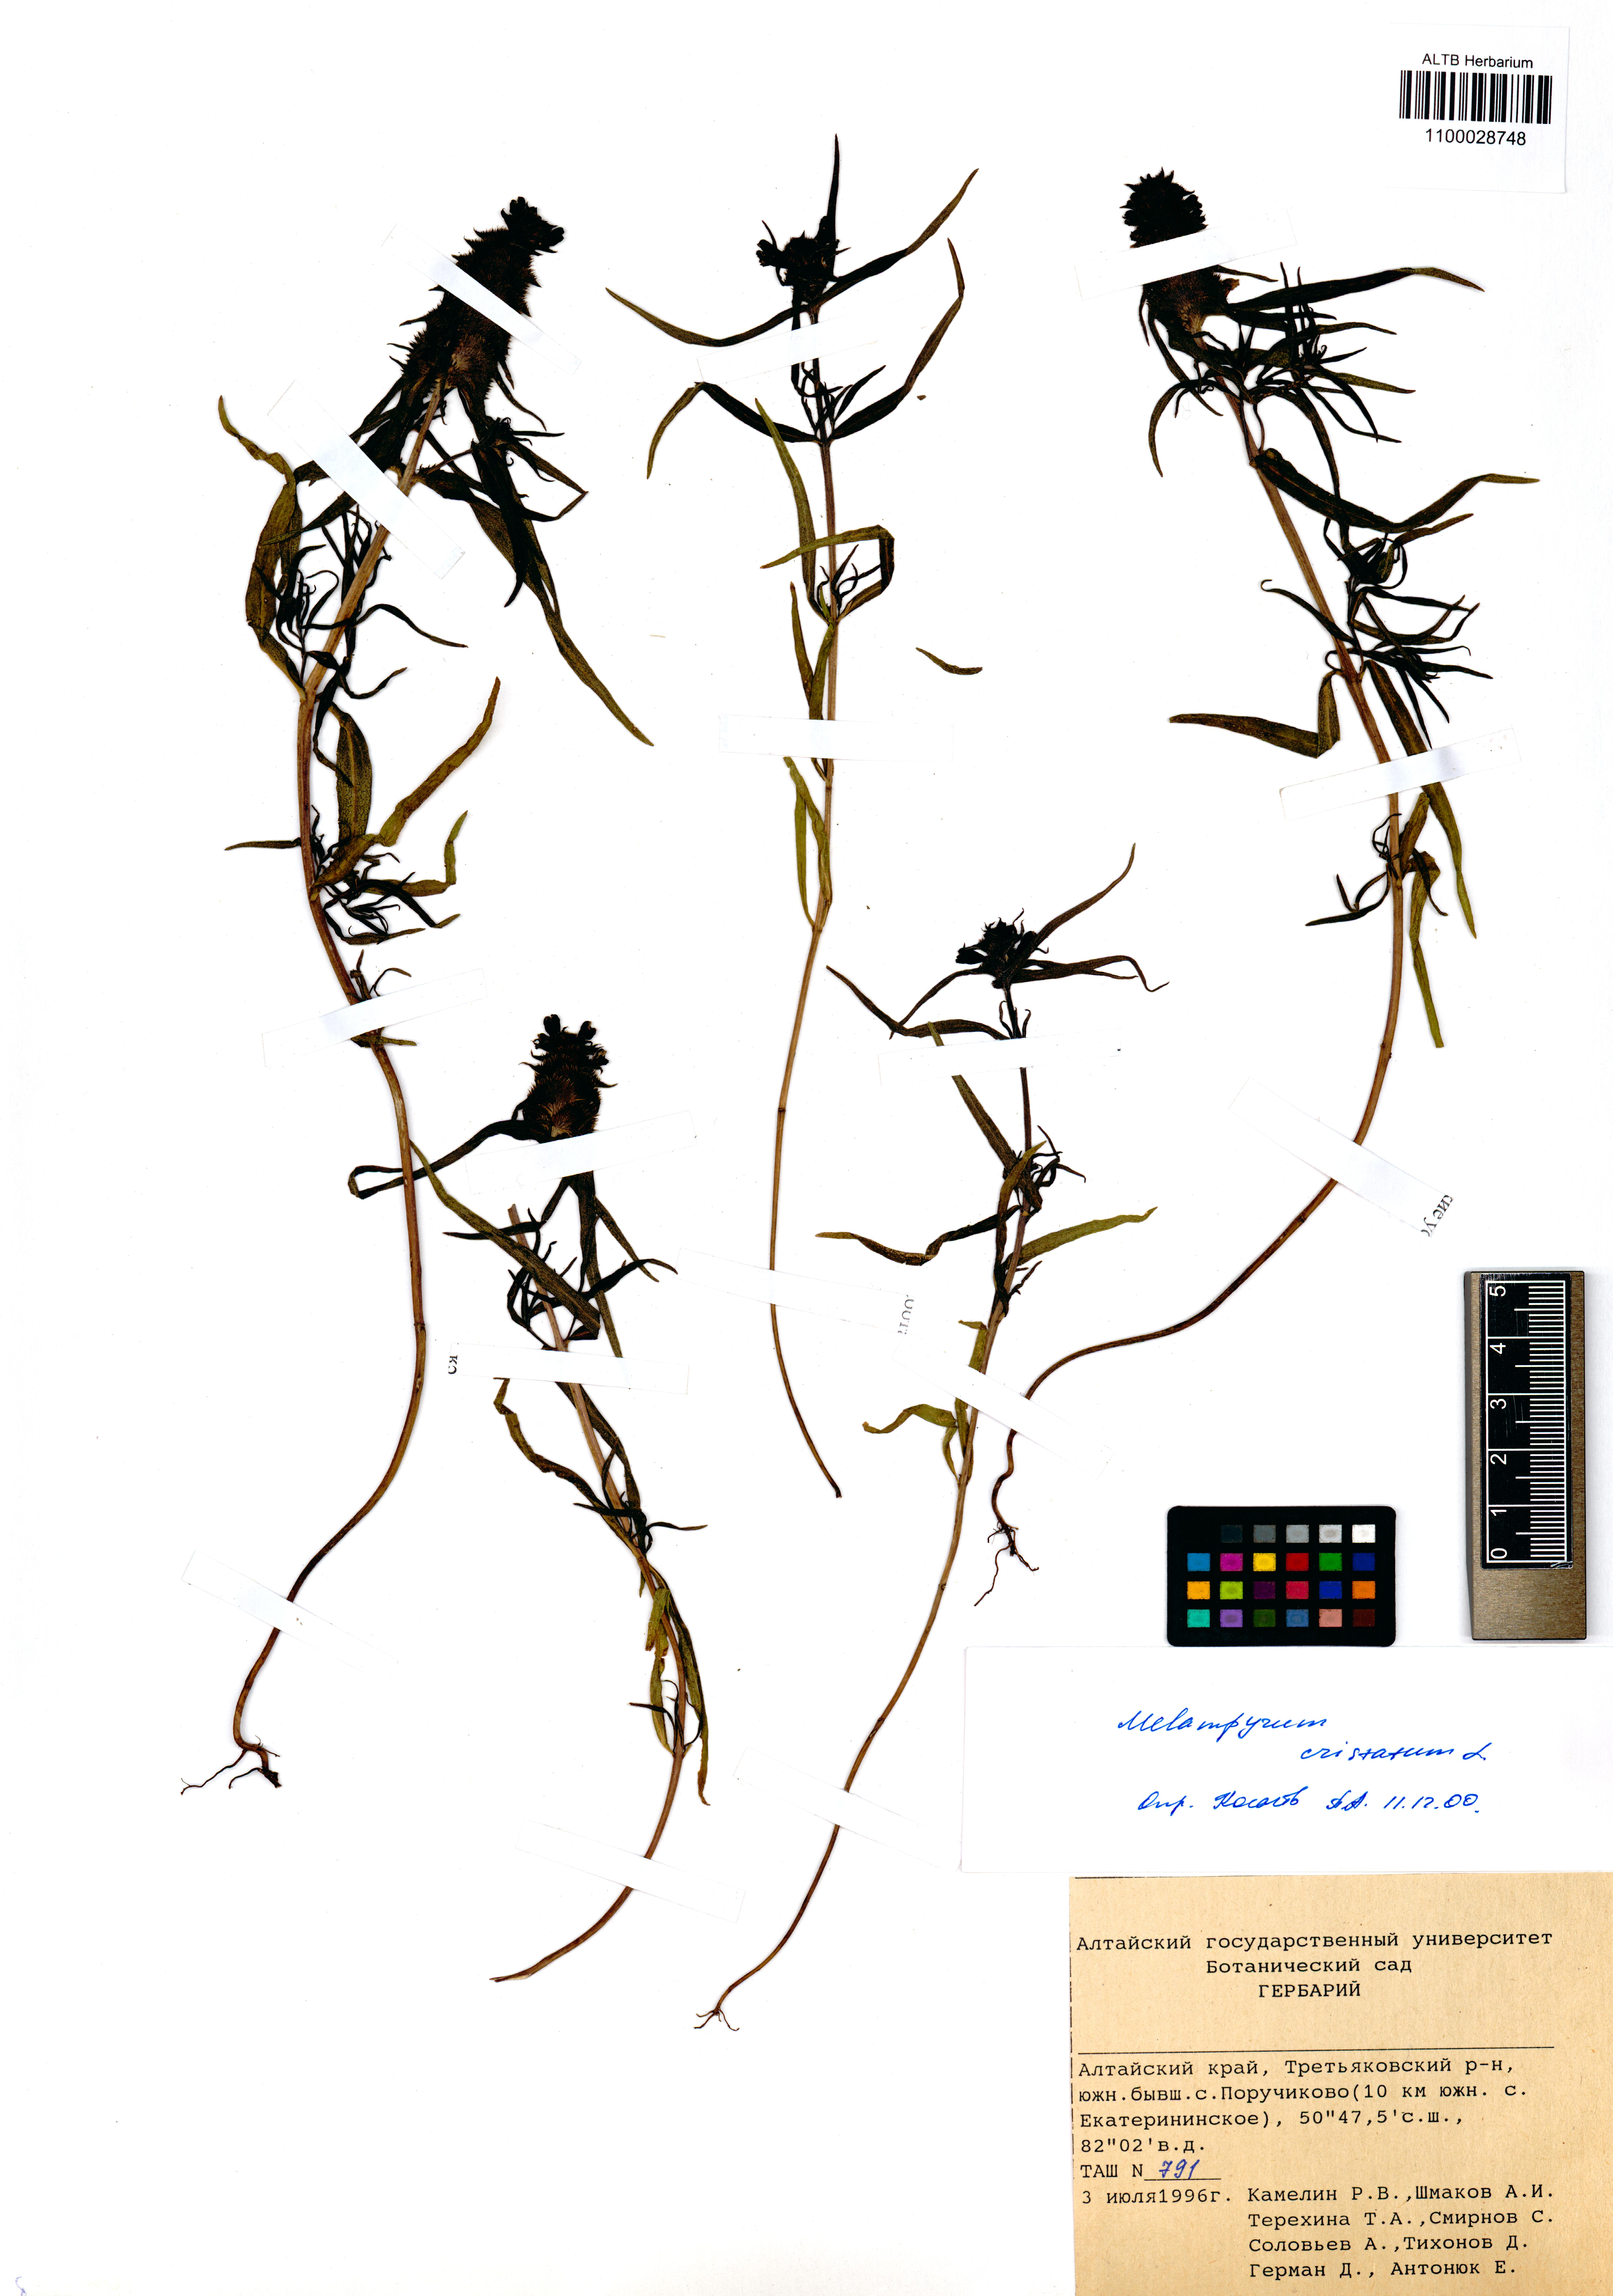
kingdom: Plantae
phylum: Tracheophyta
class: Magnoliopsida
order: Lamiales
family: Orobanchaceae
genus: Melampyrum
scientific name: Melampyrum cristatum
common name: Crested cow-wheat
